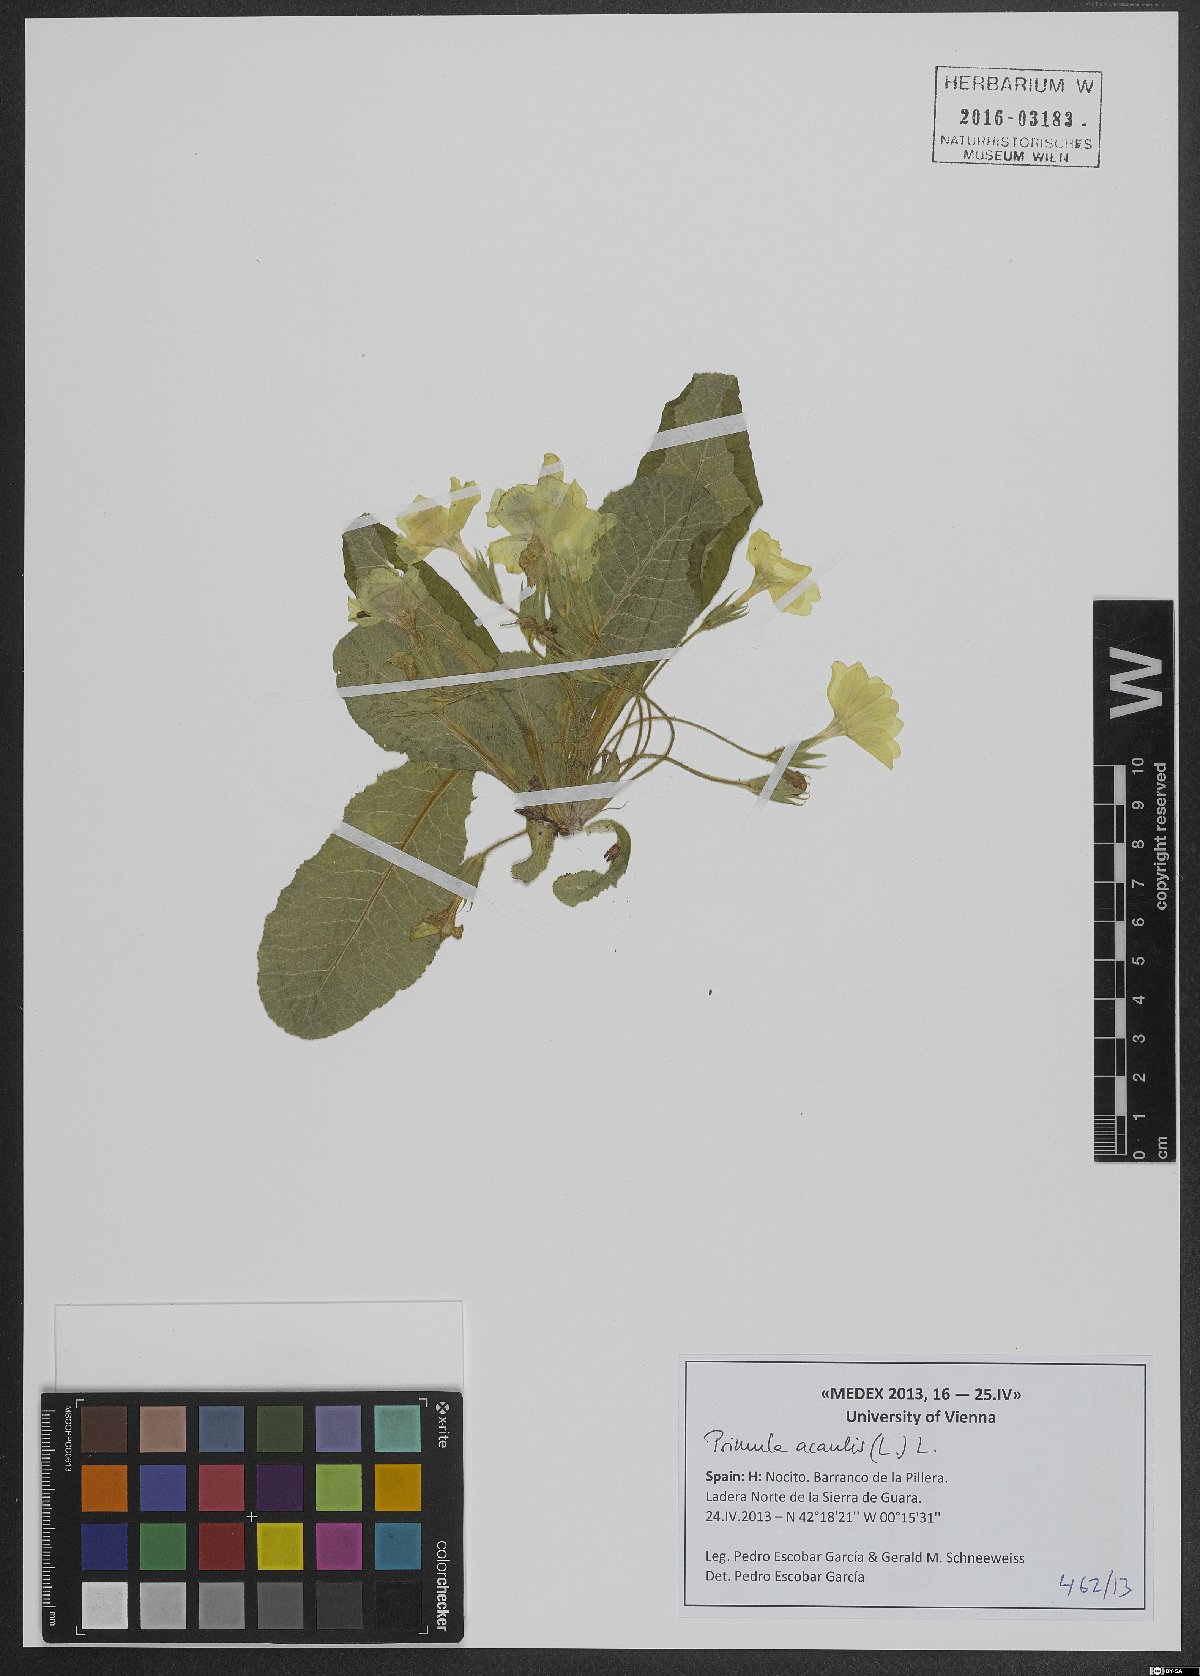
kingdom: Plantae
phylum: Tracheophyta
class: Magnoliopsida
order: Ericales
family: Primulaceae
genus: Primula
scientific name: Primula vulgaris
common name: Primrose
